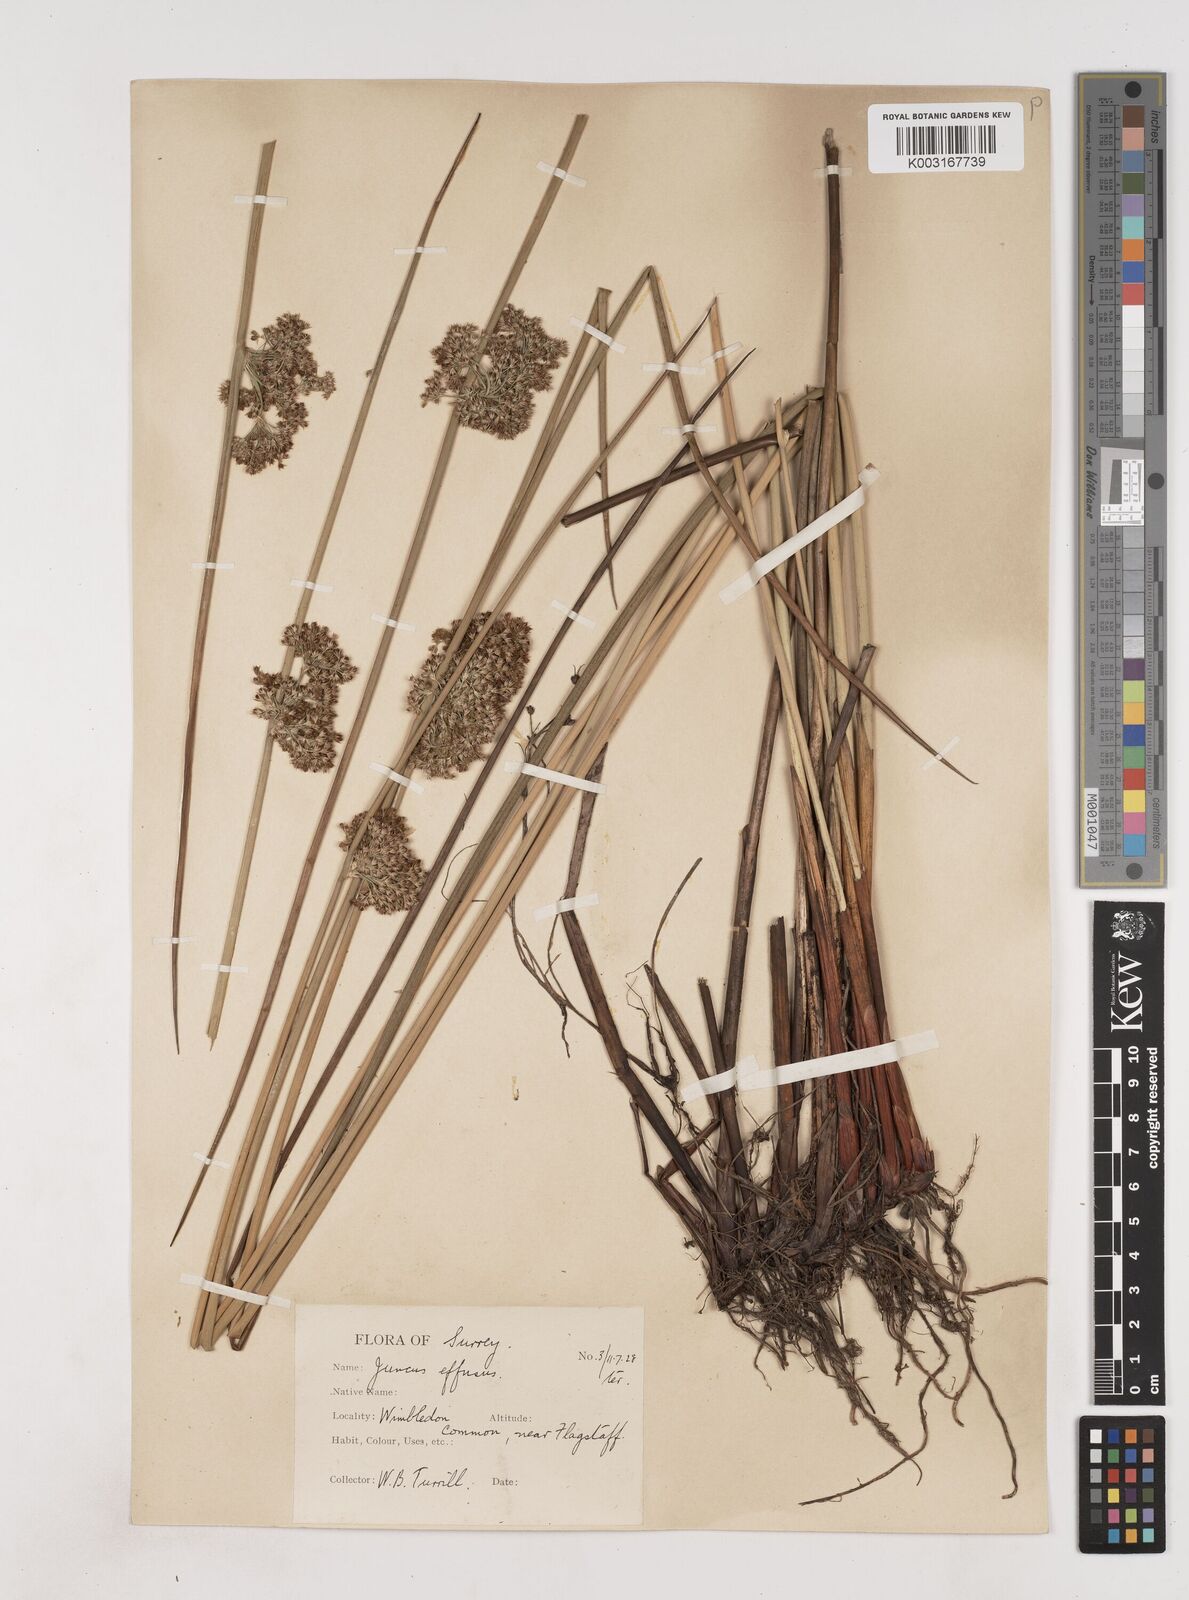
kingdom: Plantae
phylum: Tracheophyta
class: Liliopsida
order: Poales
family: Juncaceae
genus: Juncus
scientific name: Juncus effusus
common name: Soft rush
